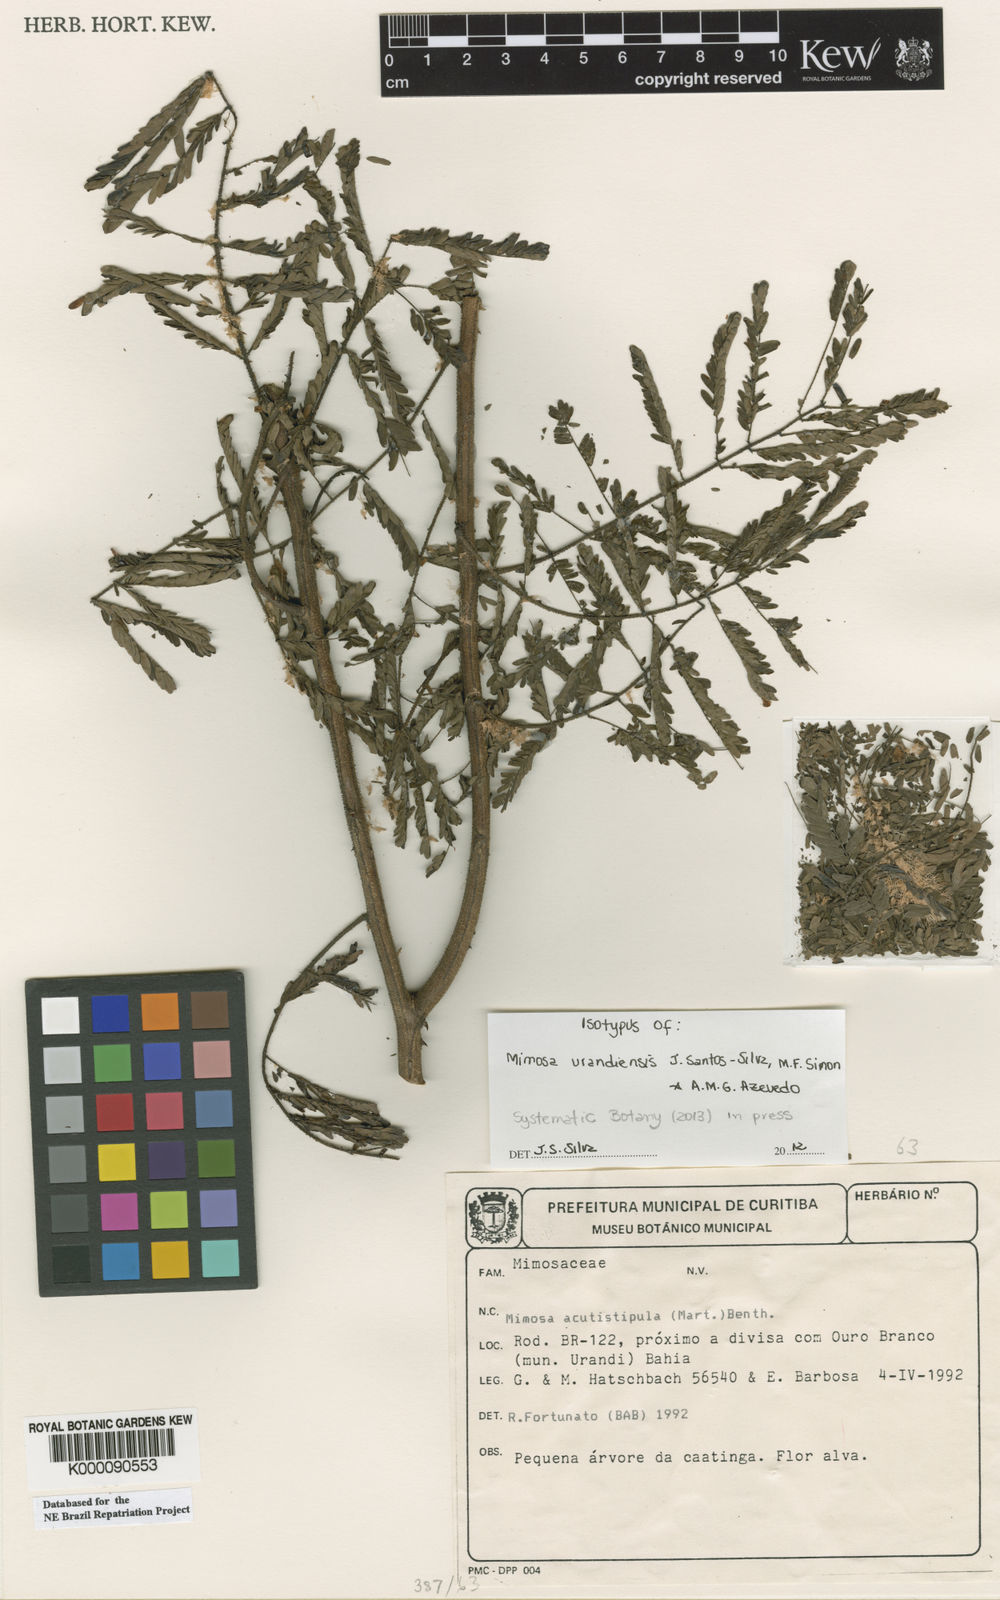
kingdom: Plantae
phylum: Tracheophyta
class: Magnoliopsida
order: Fabales
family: Fabaceae
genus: Mimosa
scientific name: Mimosa acutistipula
